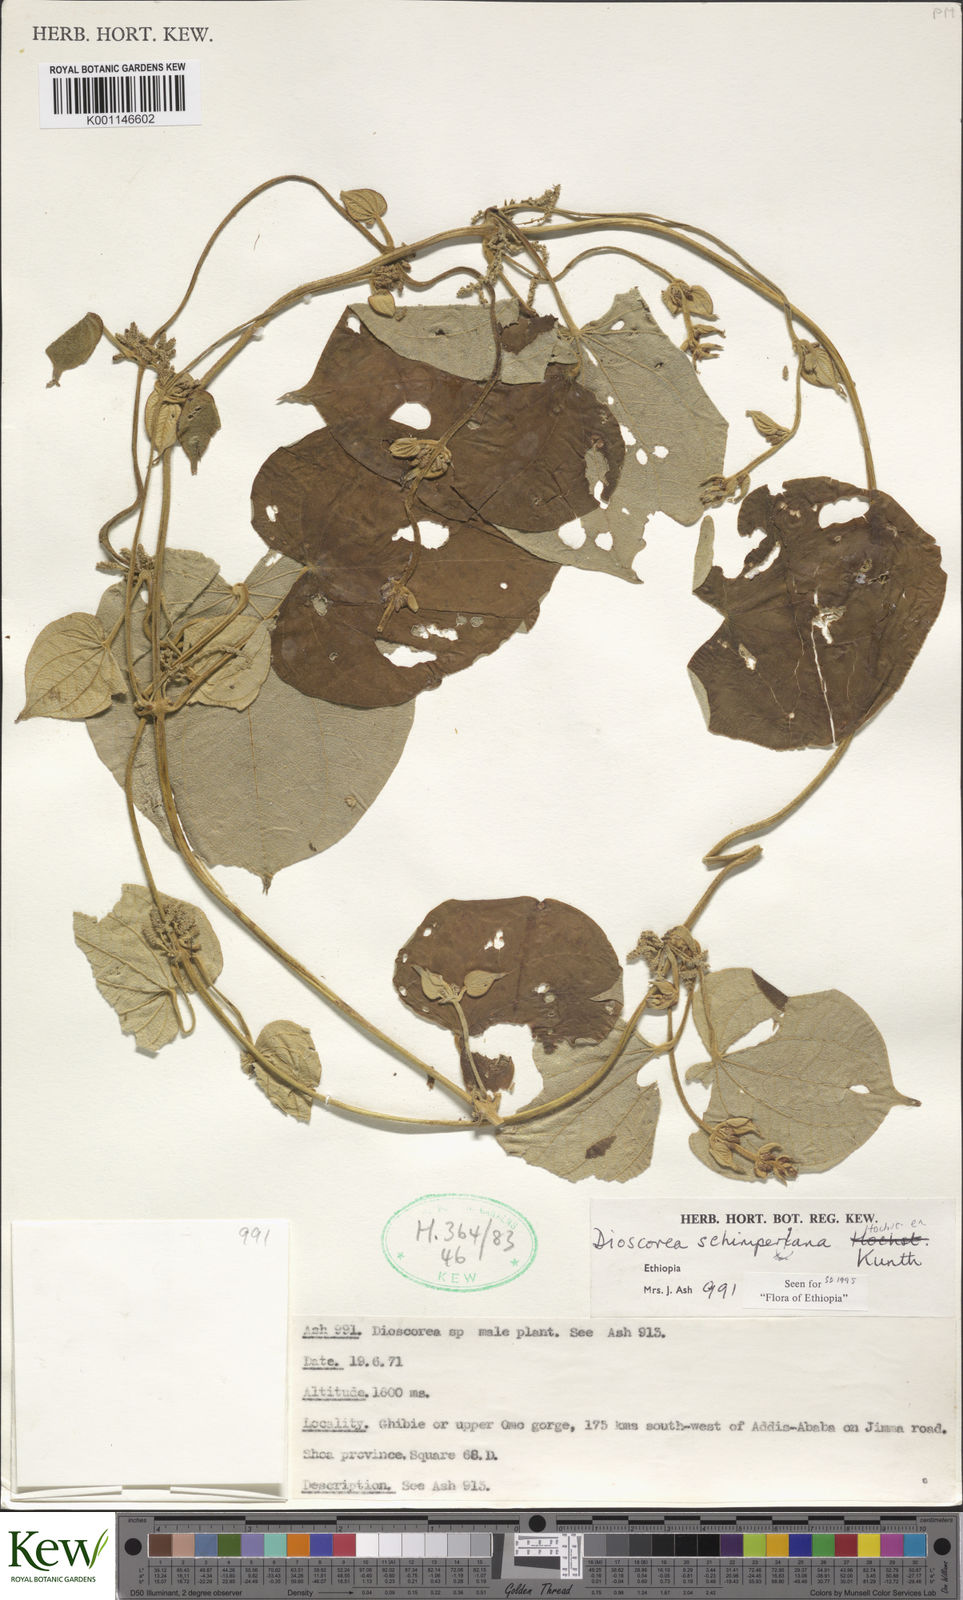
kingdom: Plantae
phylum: Tracheophyta
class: Liliopsida
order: Dioscoreales
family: Dioscoreaceae
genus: Dioscorea
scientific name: Dioscorea schimperiana
